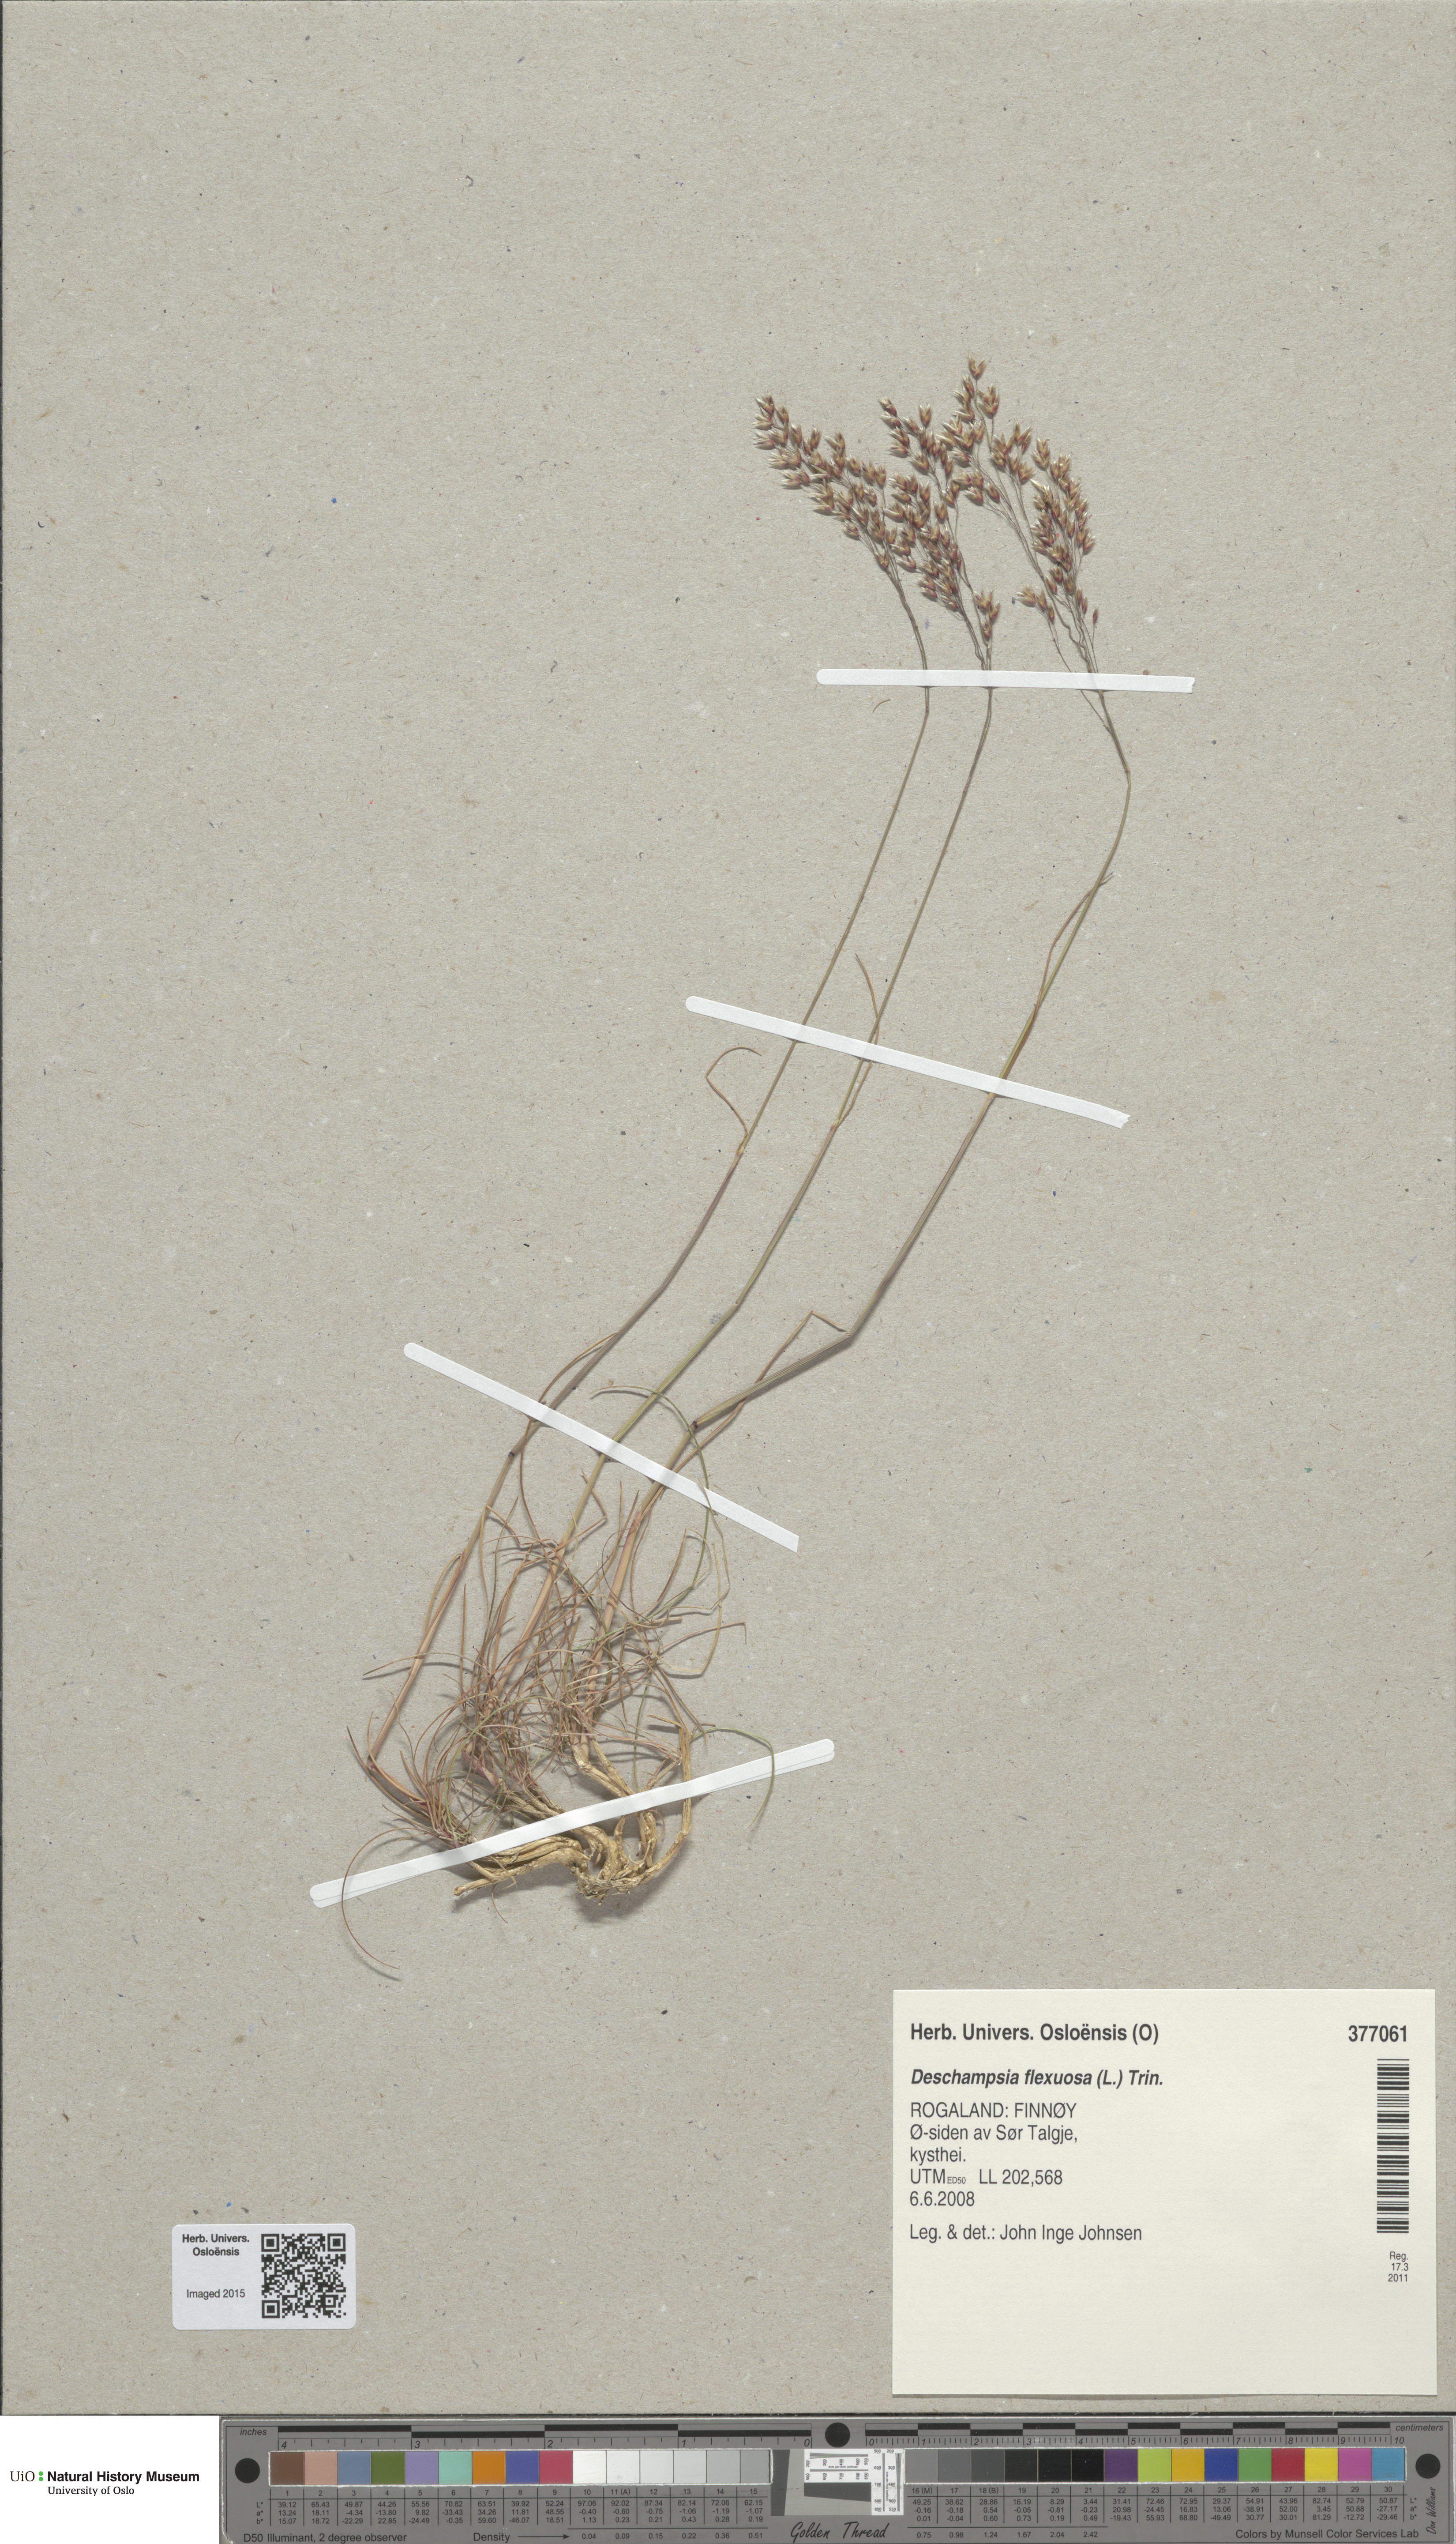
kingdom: Plantae
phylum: Tracheophyta
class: Liliopsida
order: Poales
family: Poaceae
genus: Avenella
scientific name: Avenella flexuosa
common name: Wavy hairgrass
